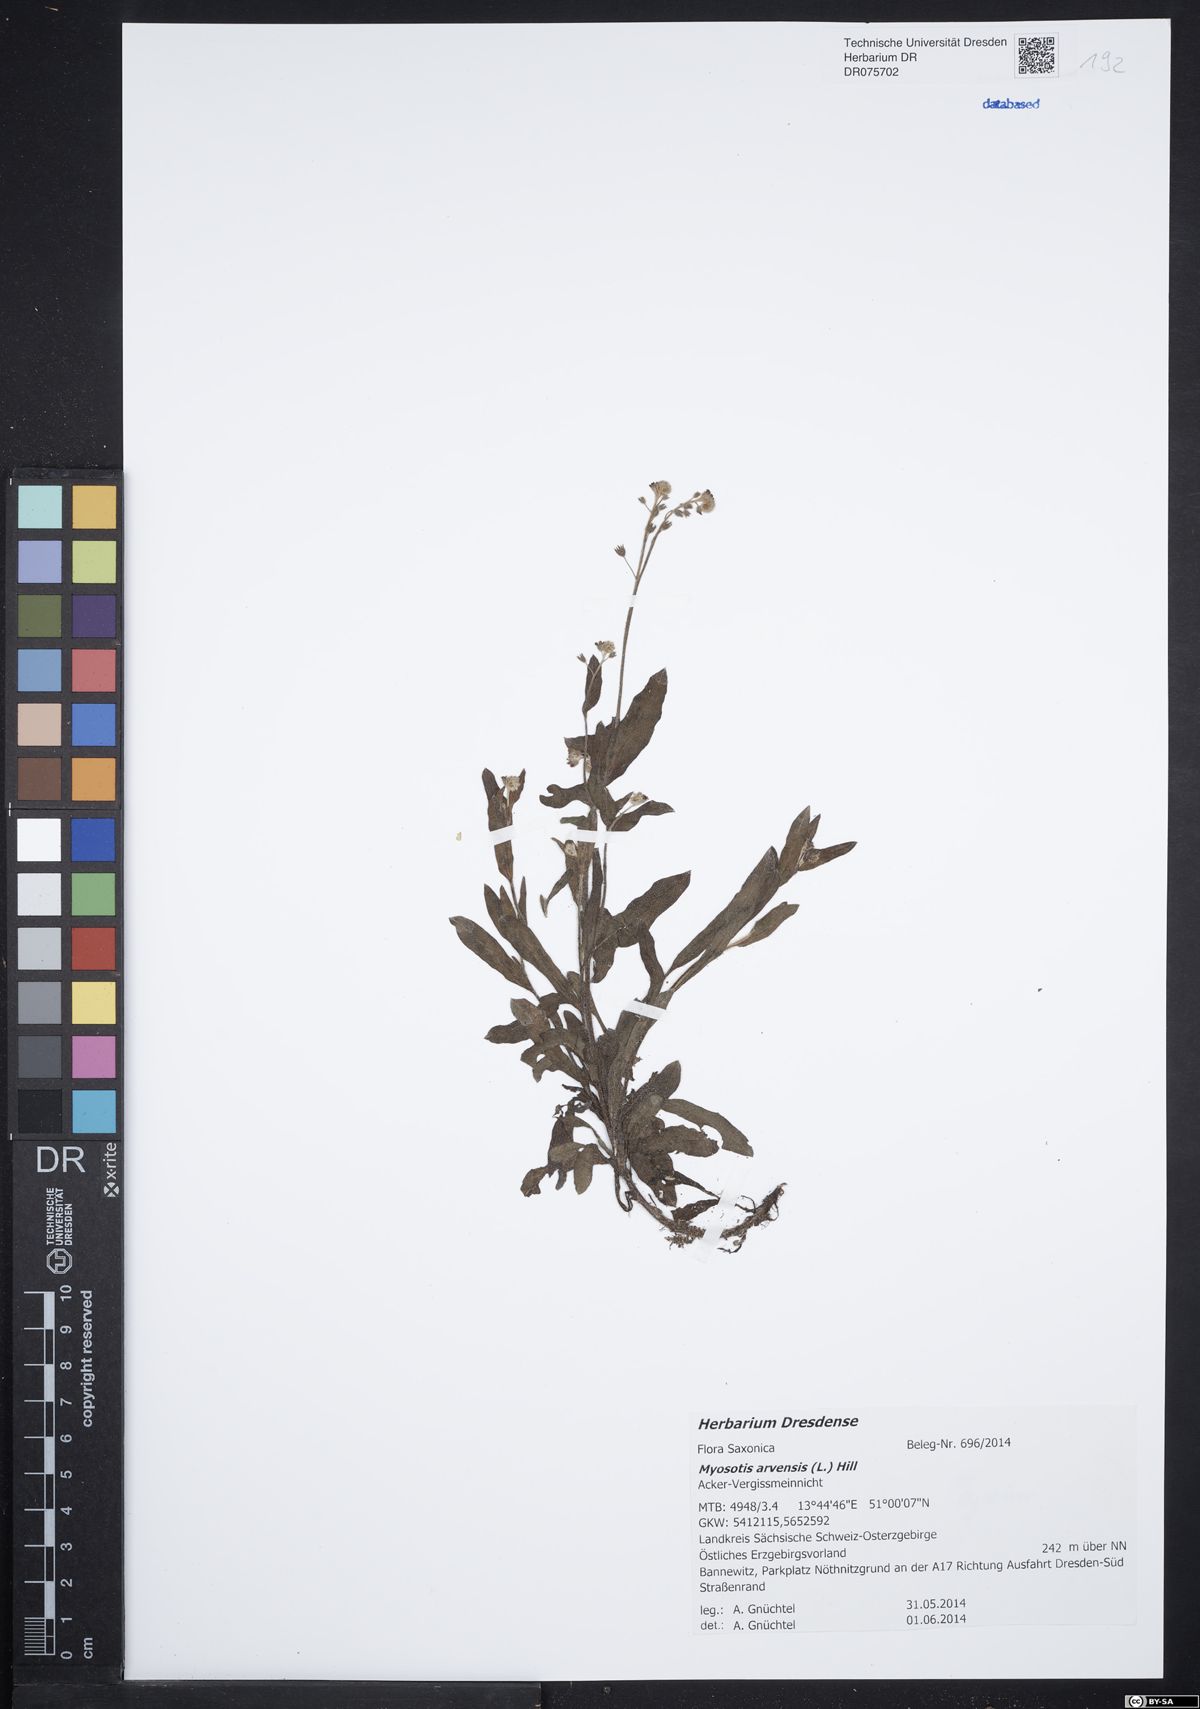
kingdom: Plantae
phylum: Tracheophyta
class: Magnoliopsida
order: Boraginales
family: Boraginaceae
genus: Myosotis
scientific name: Myosotis arvensis
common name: Field forget-me-not
